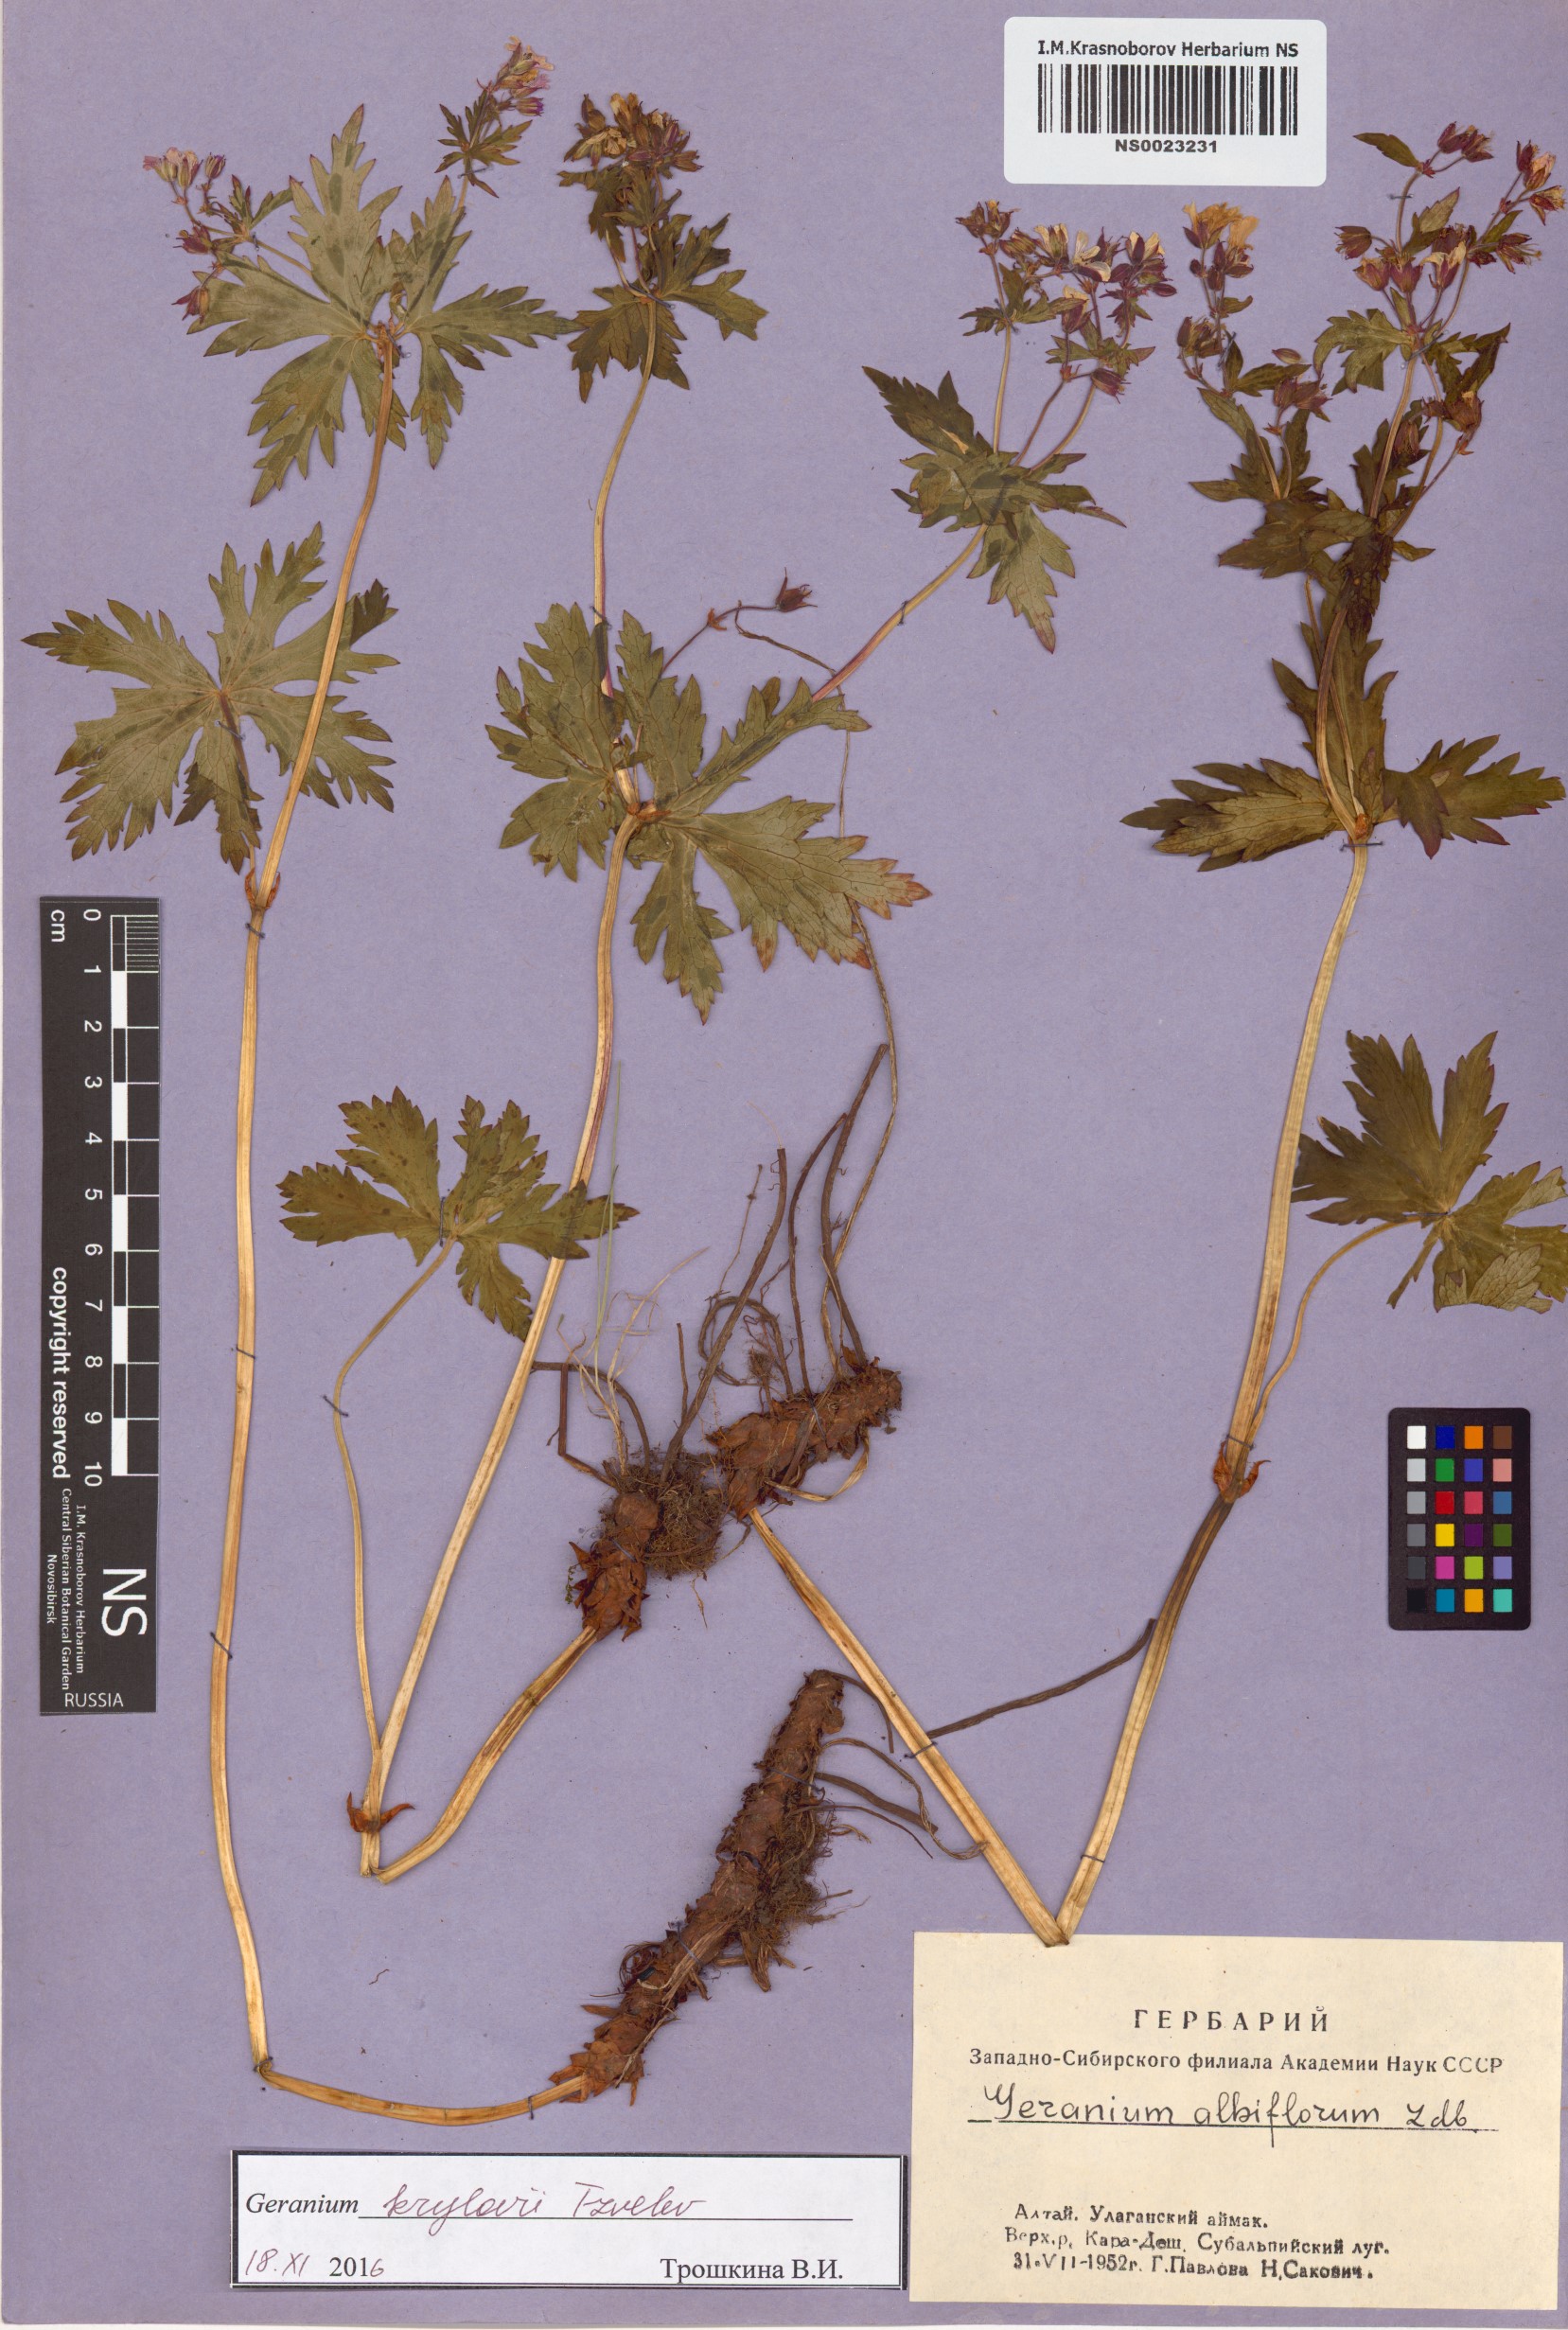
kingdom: Plantae
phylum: Tracheophyta
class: Magnoliopsida
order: Geraniales
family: Geraniaceae
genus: Geranium
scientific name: Geranium sylvaticum
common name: Wood crane's-bill
